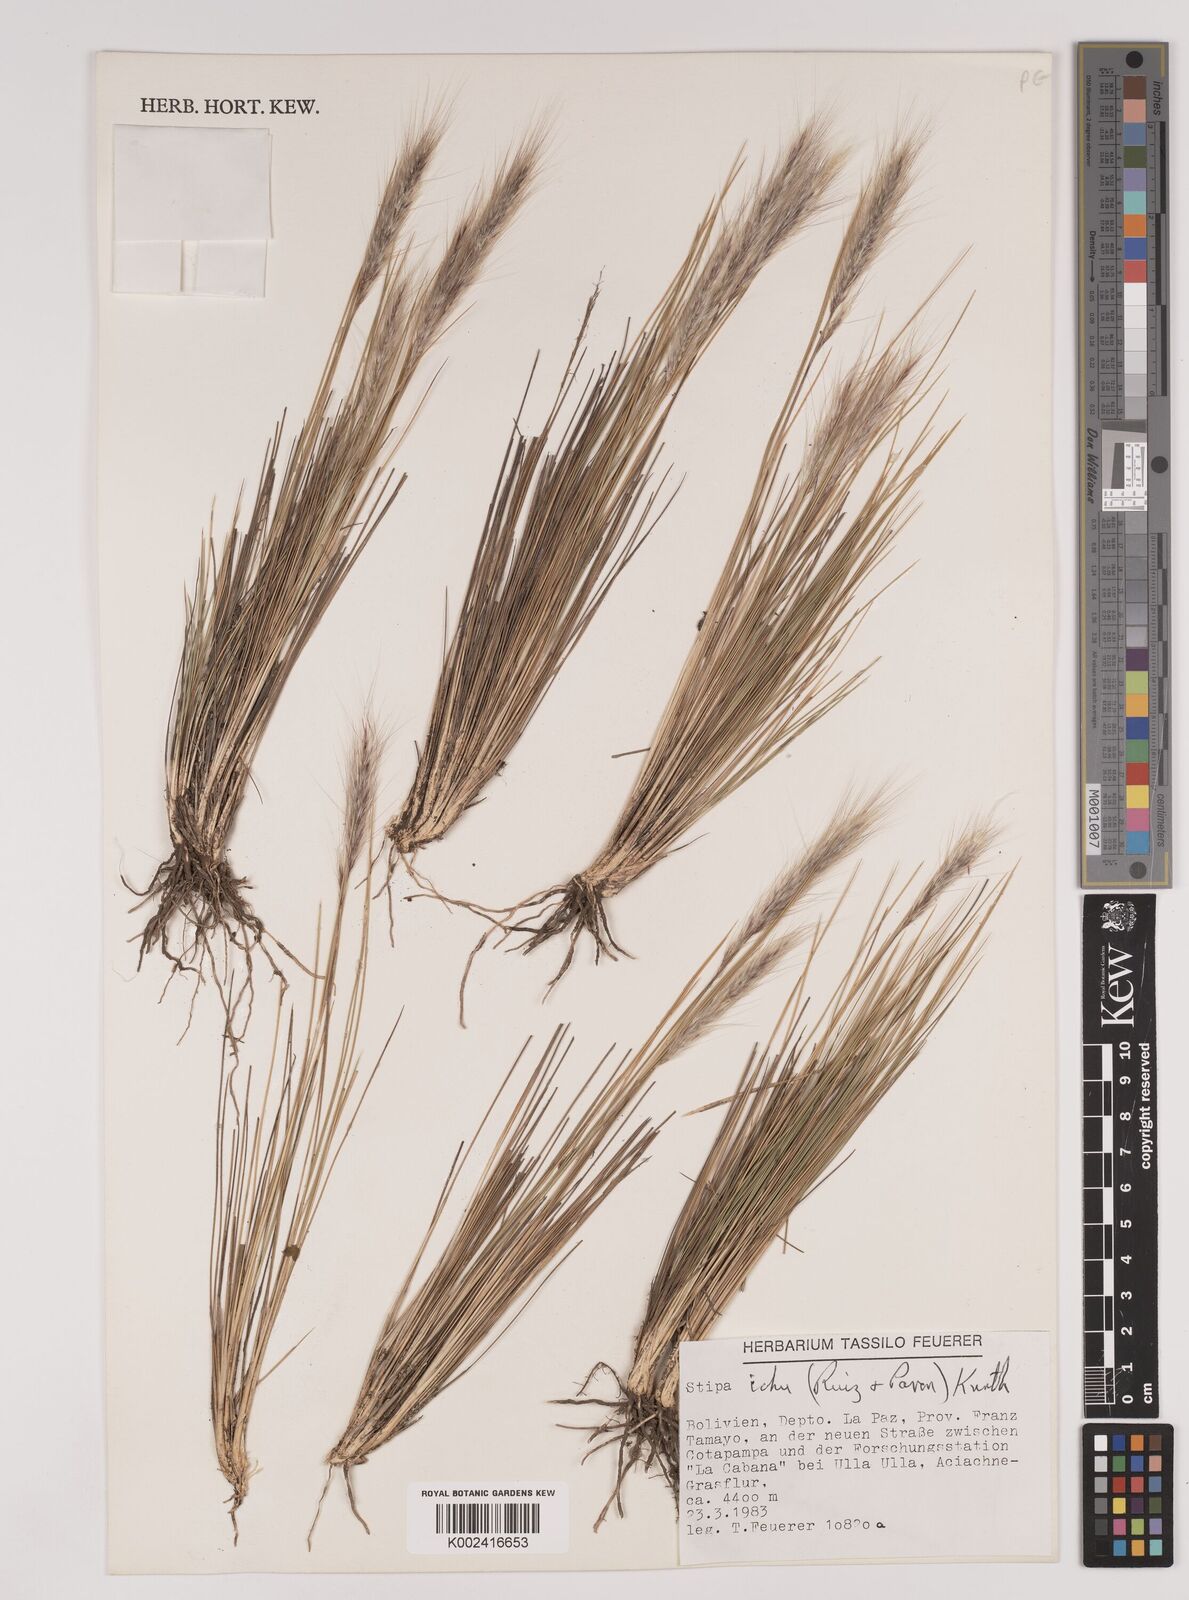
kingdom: Plantae
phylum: Tracheophyta
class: Liliopsida
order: Poales
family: Poaceae
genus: Stipa
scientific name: Stipa pungens
